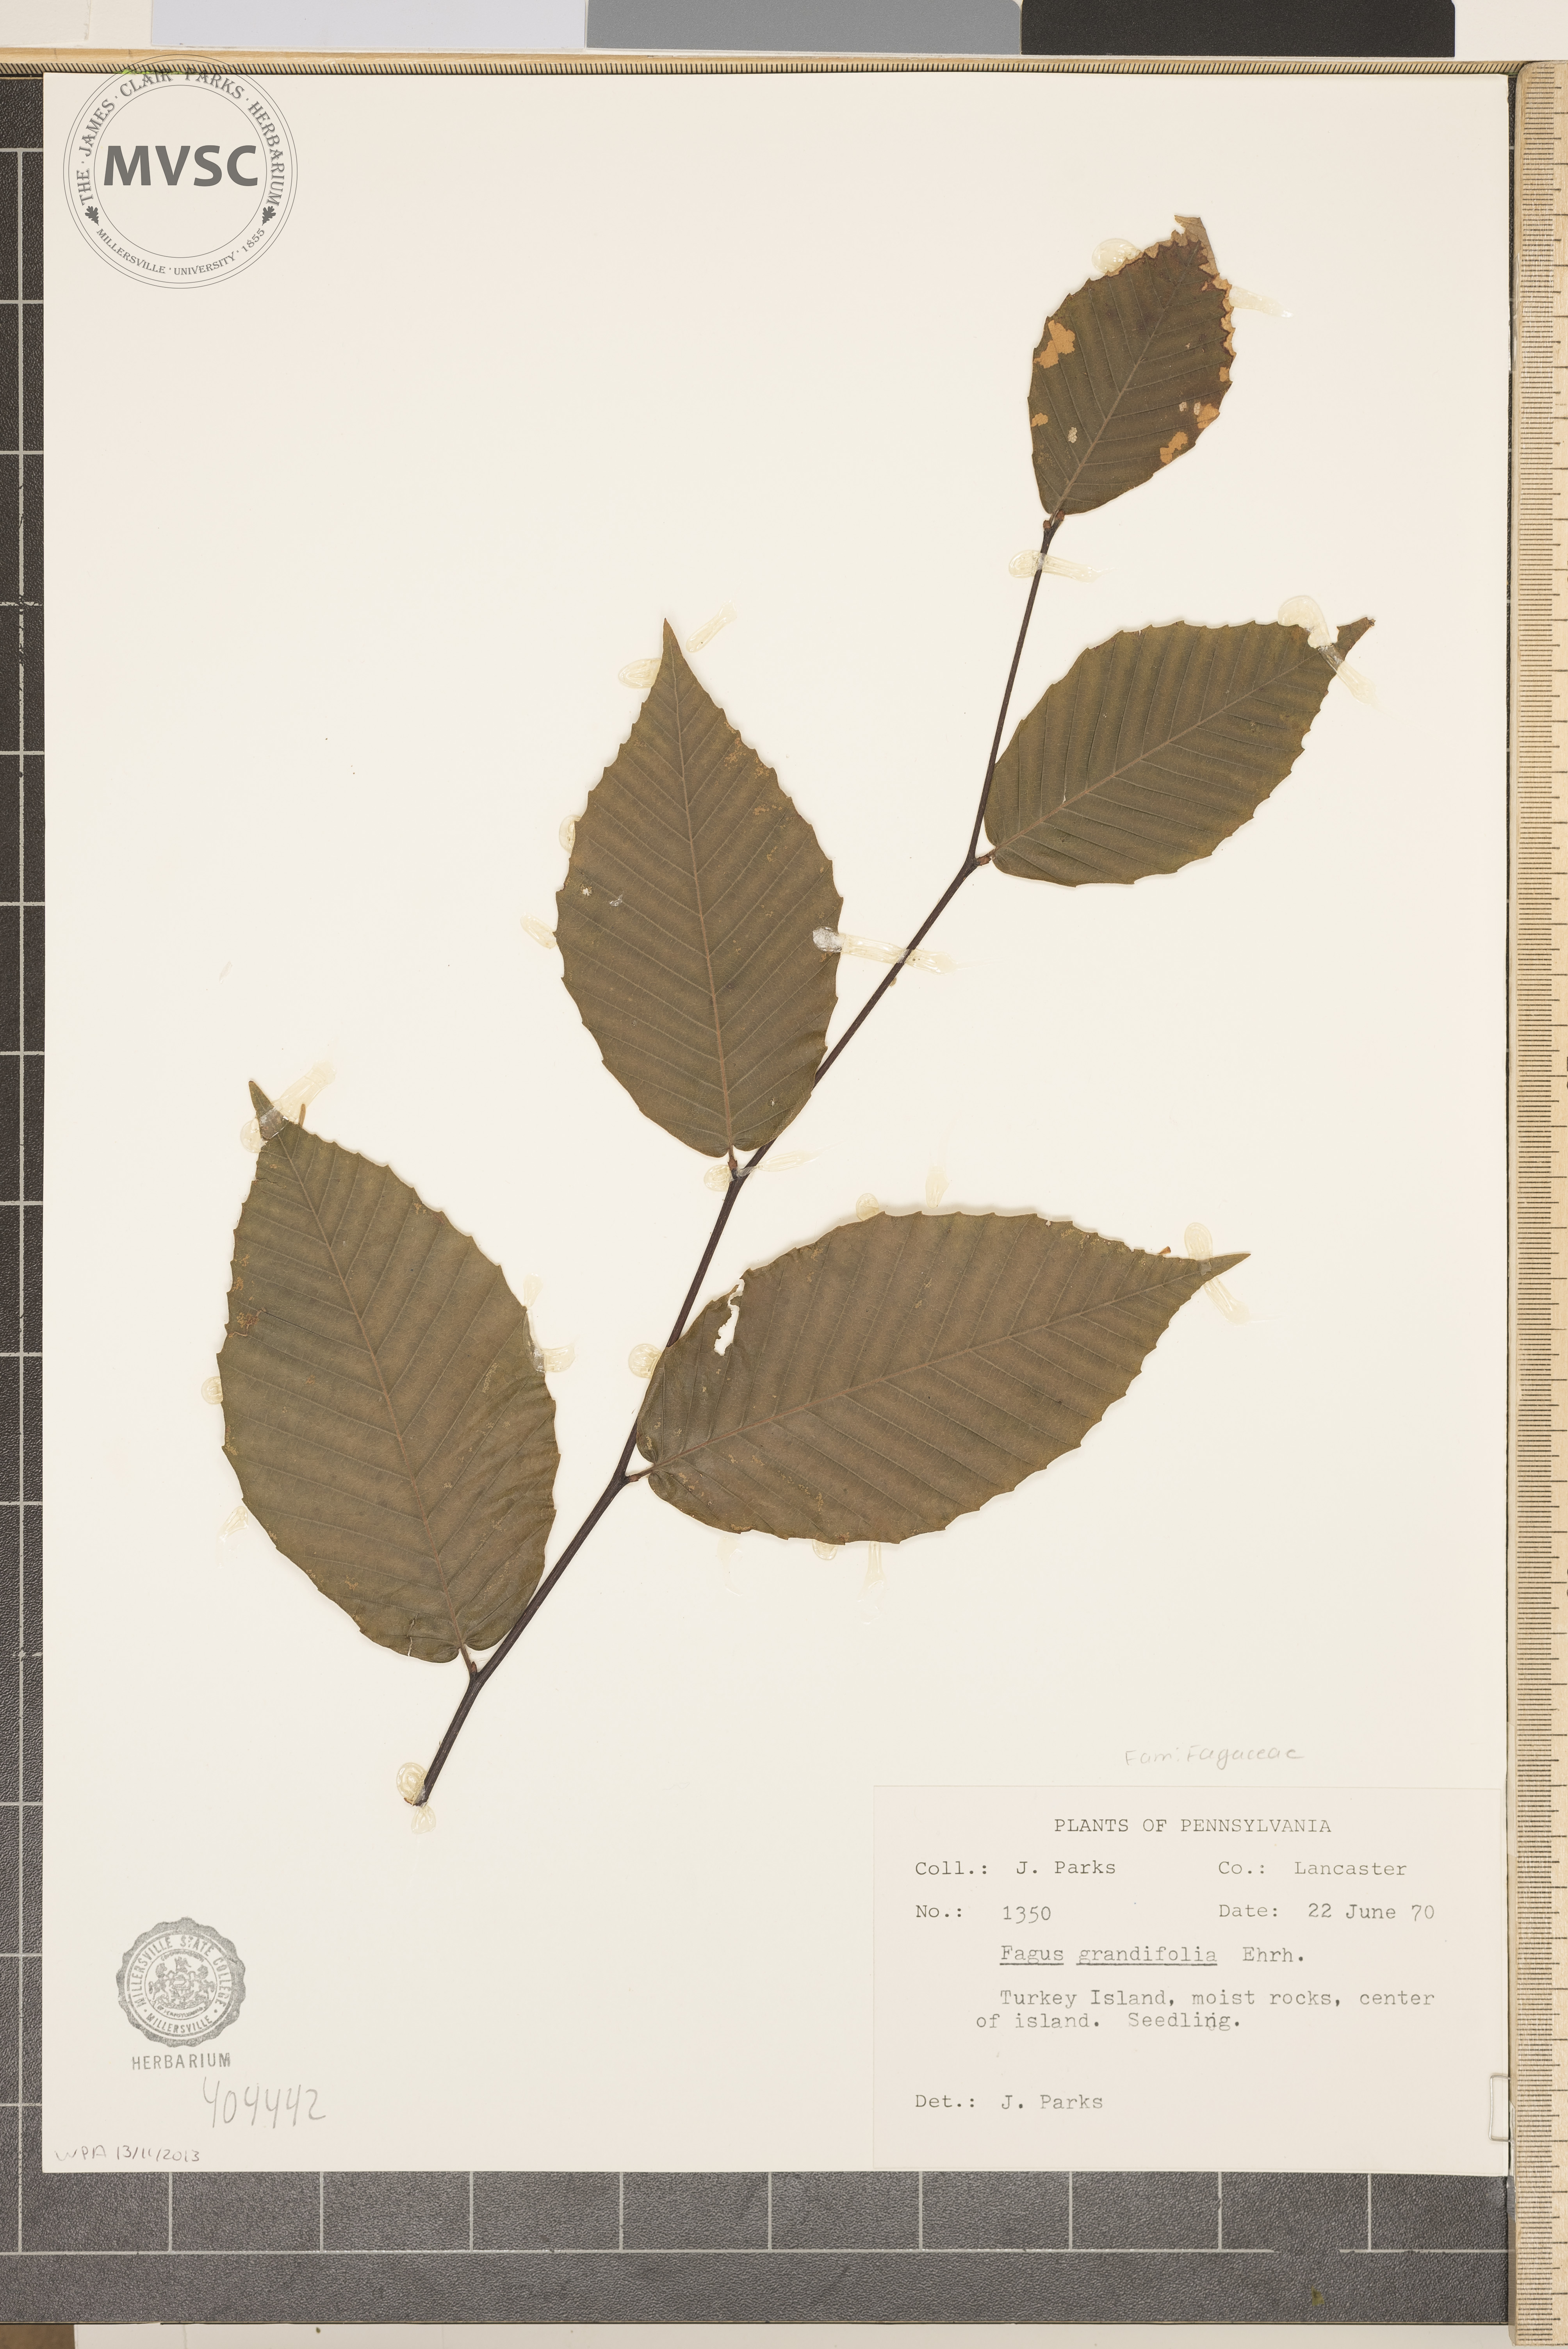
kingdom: Plantae
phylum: Tracheophyta
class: Magnoliopsida
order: Fagales
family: Fagaceae
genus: Fagus
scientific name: Fagus grandifolia
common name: American beech
